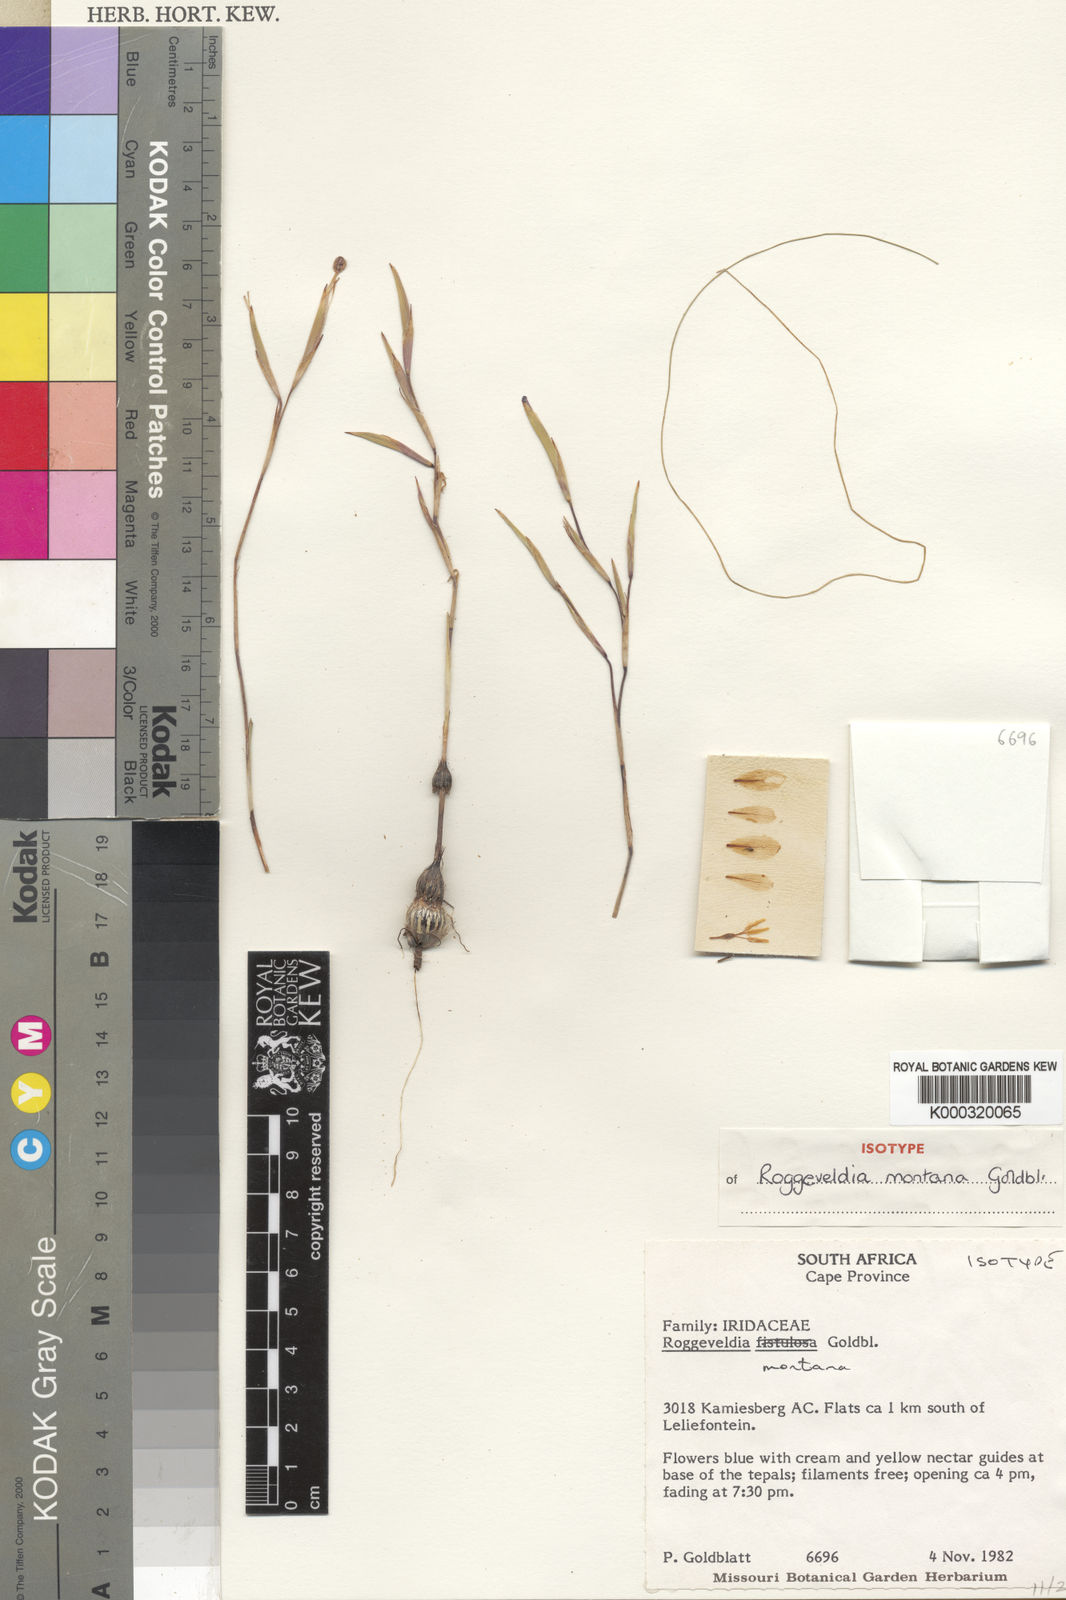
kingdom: Plantae
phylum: Tracheophyta
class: Liliopsida
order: Asparagales
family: Iridaceae
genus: Moraea
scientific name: Moraea monticola
